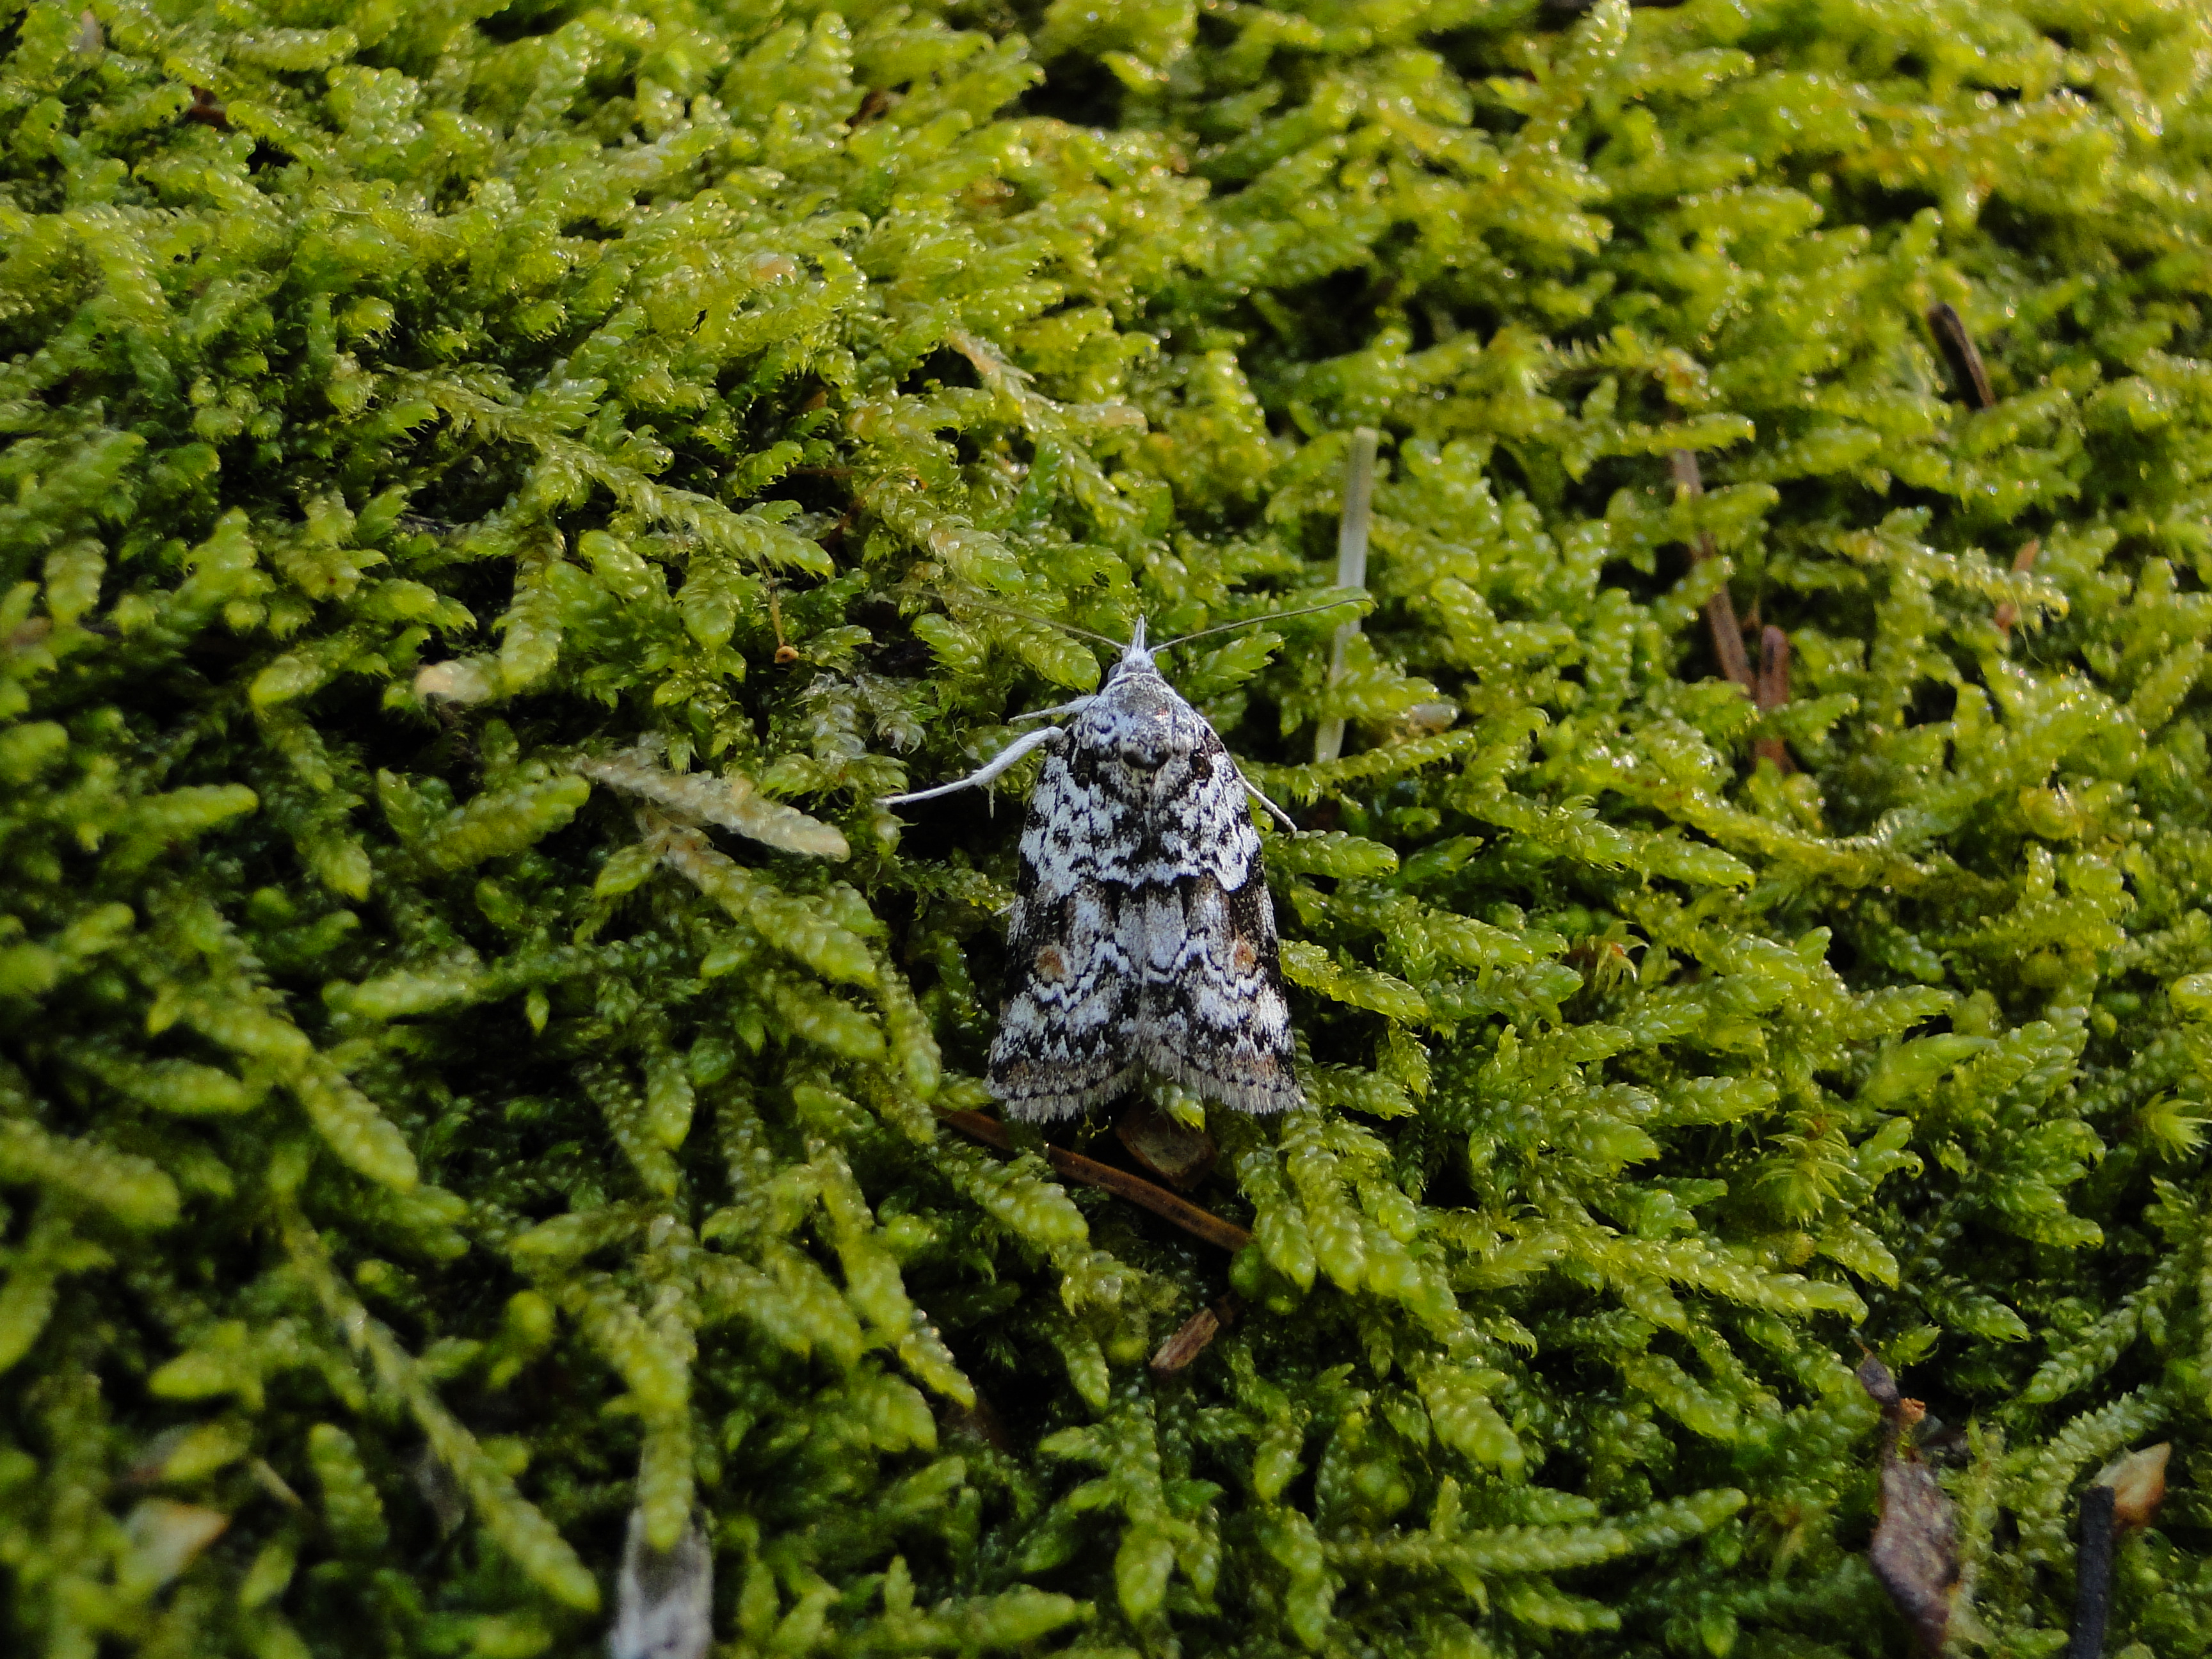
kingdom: Animalia
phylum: Arthropoda
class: Insecta
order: Lepidoptera
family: Nolidae
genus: Nycteola
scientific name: Nycteola degenerana
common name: Swallow nycteoline
